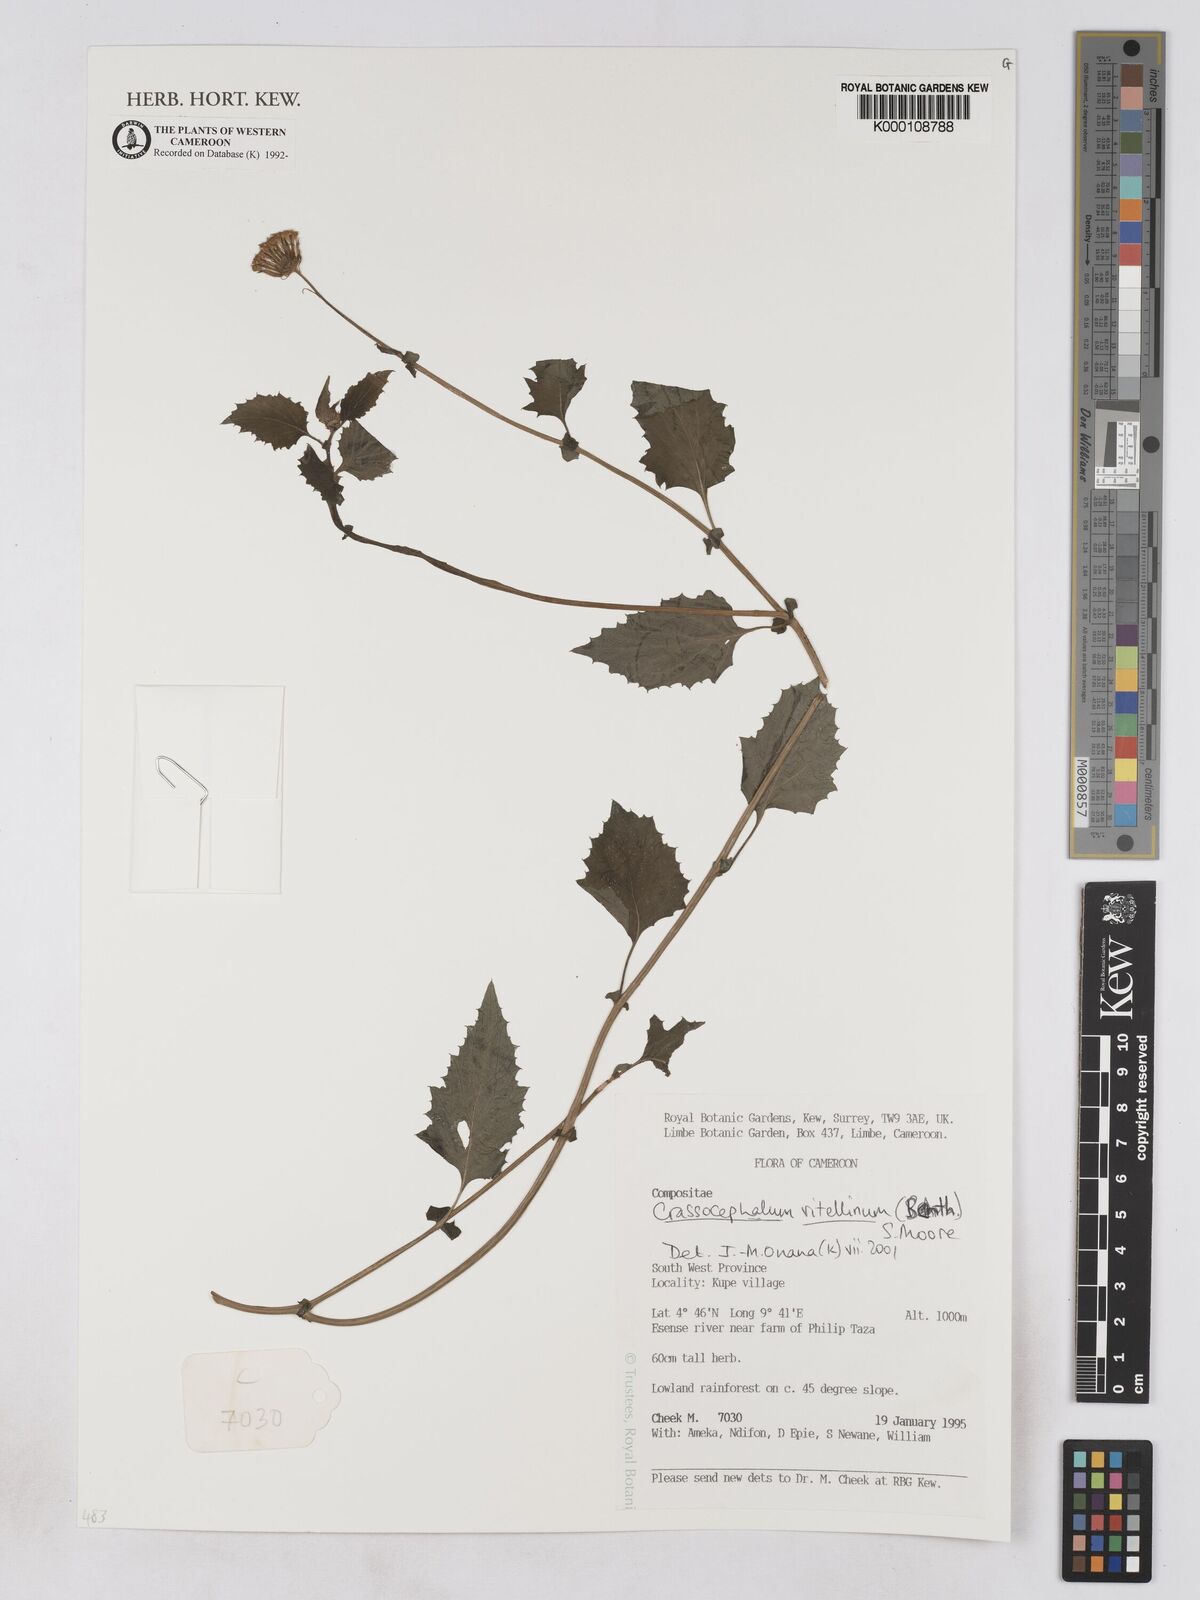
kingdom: Plantae
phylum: Tracheophyta
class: Magnoliopsida
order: Asterales
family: Asteraceae
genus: Crassocephalum
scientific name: Crassocephalum vitellinum
